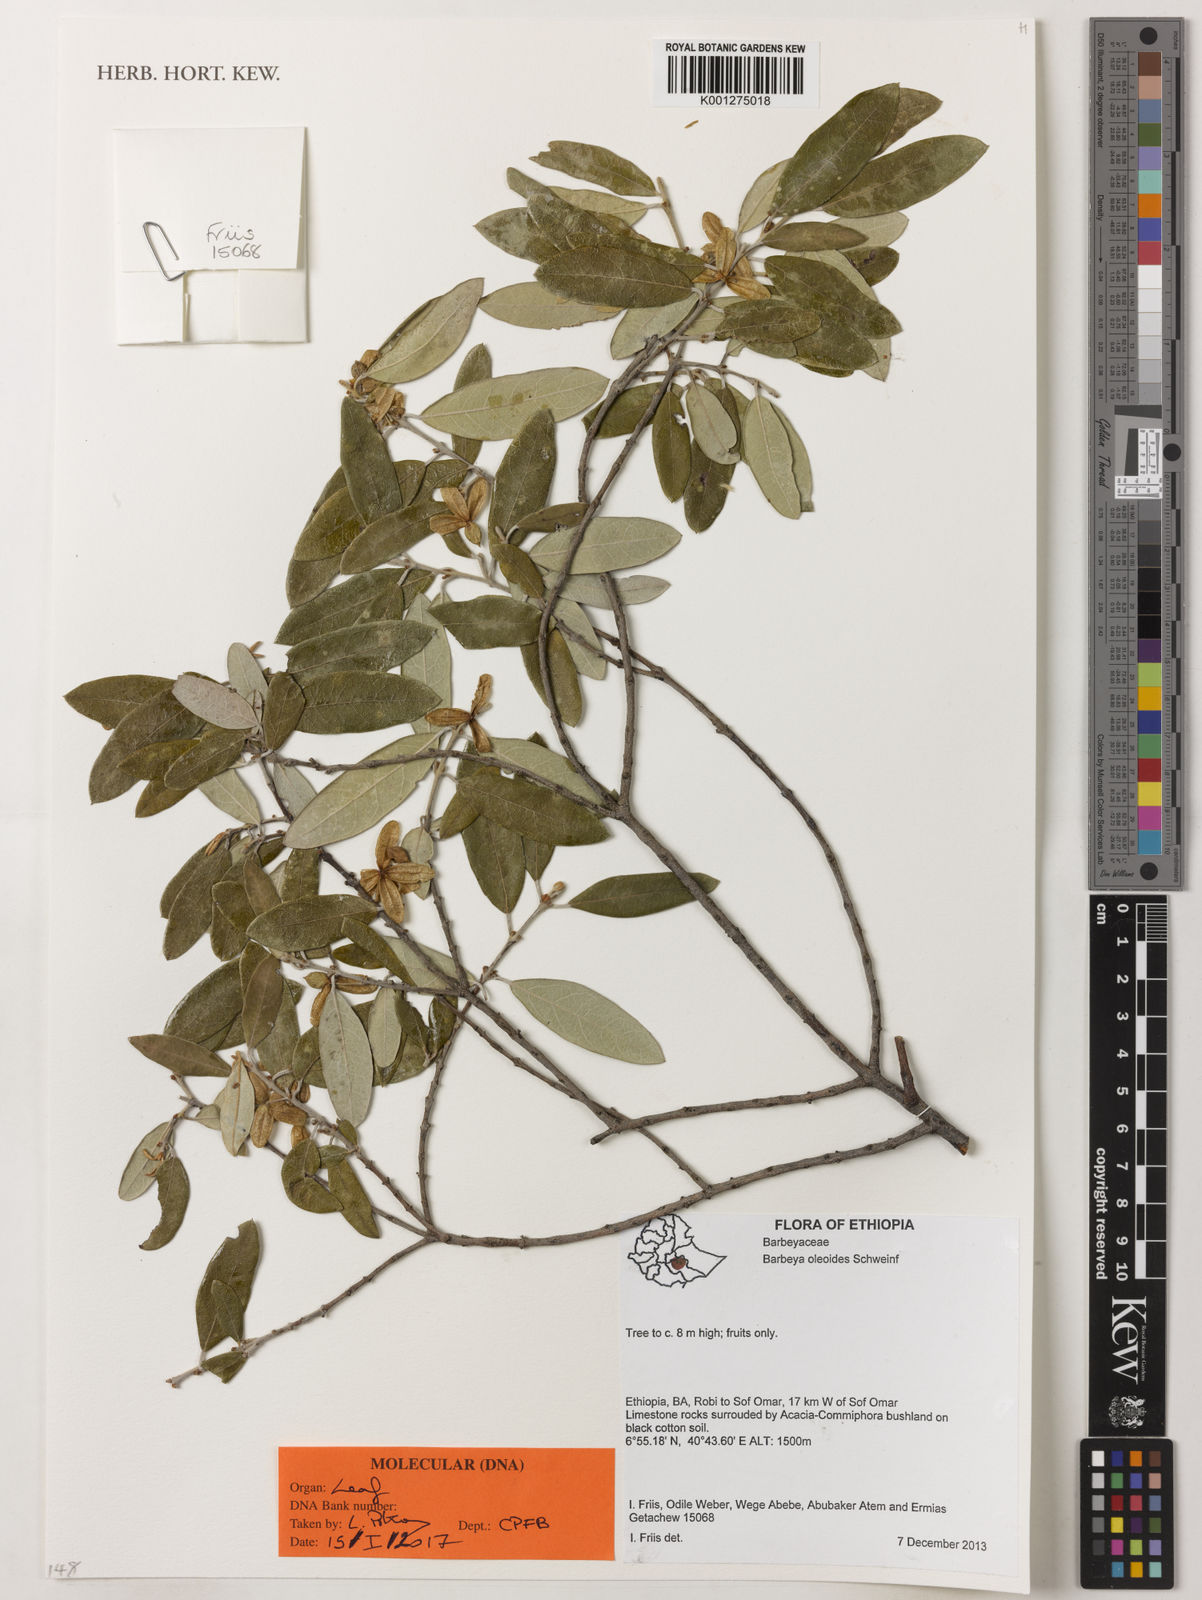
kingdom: Plantae
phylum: Tracheophyta
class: Magnoliopsida
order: Rosales
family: Barbeyaceae
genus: Barbeya
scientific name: Barbeya oleoides
